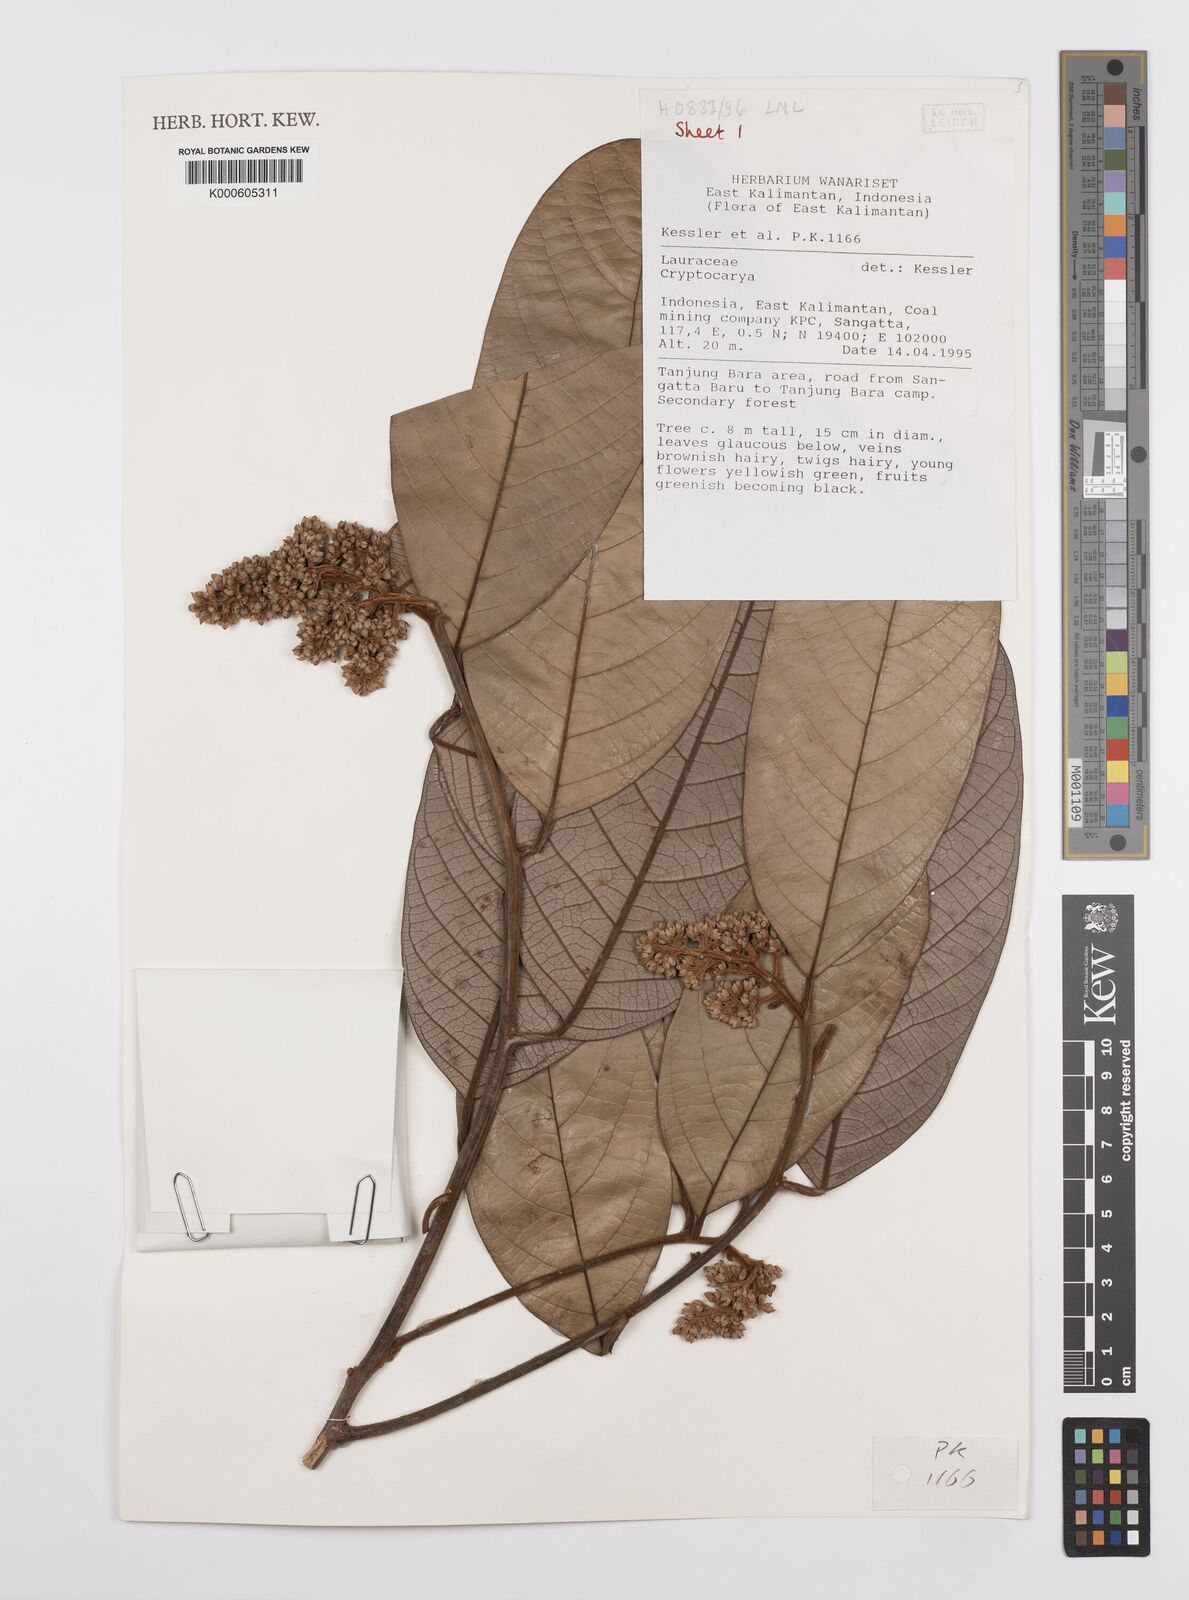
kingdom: Plantae
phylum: Tracheophyta
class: Magnoliopsida
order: Laurales
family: Lauraceae
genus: Cryptocarya
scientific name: Cryptocarya diversifolia
